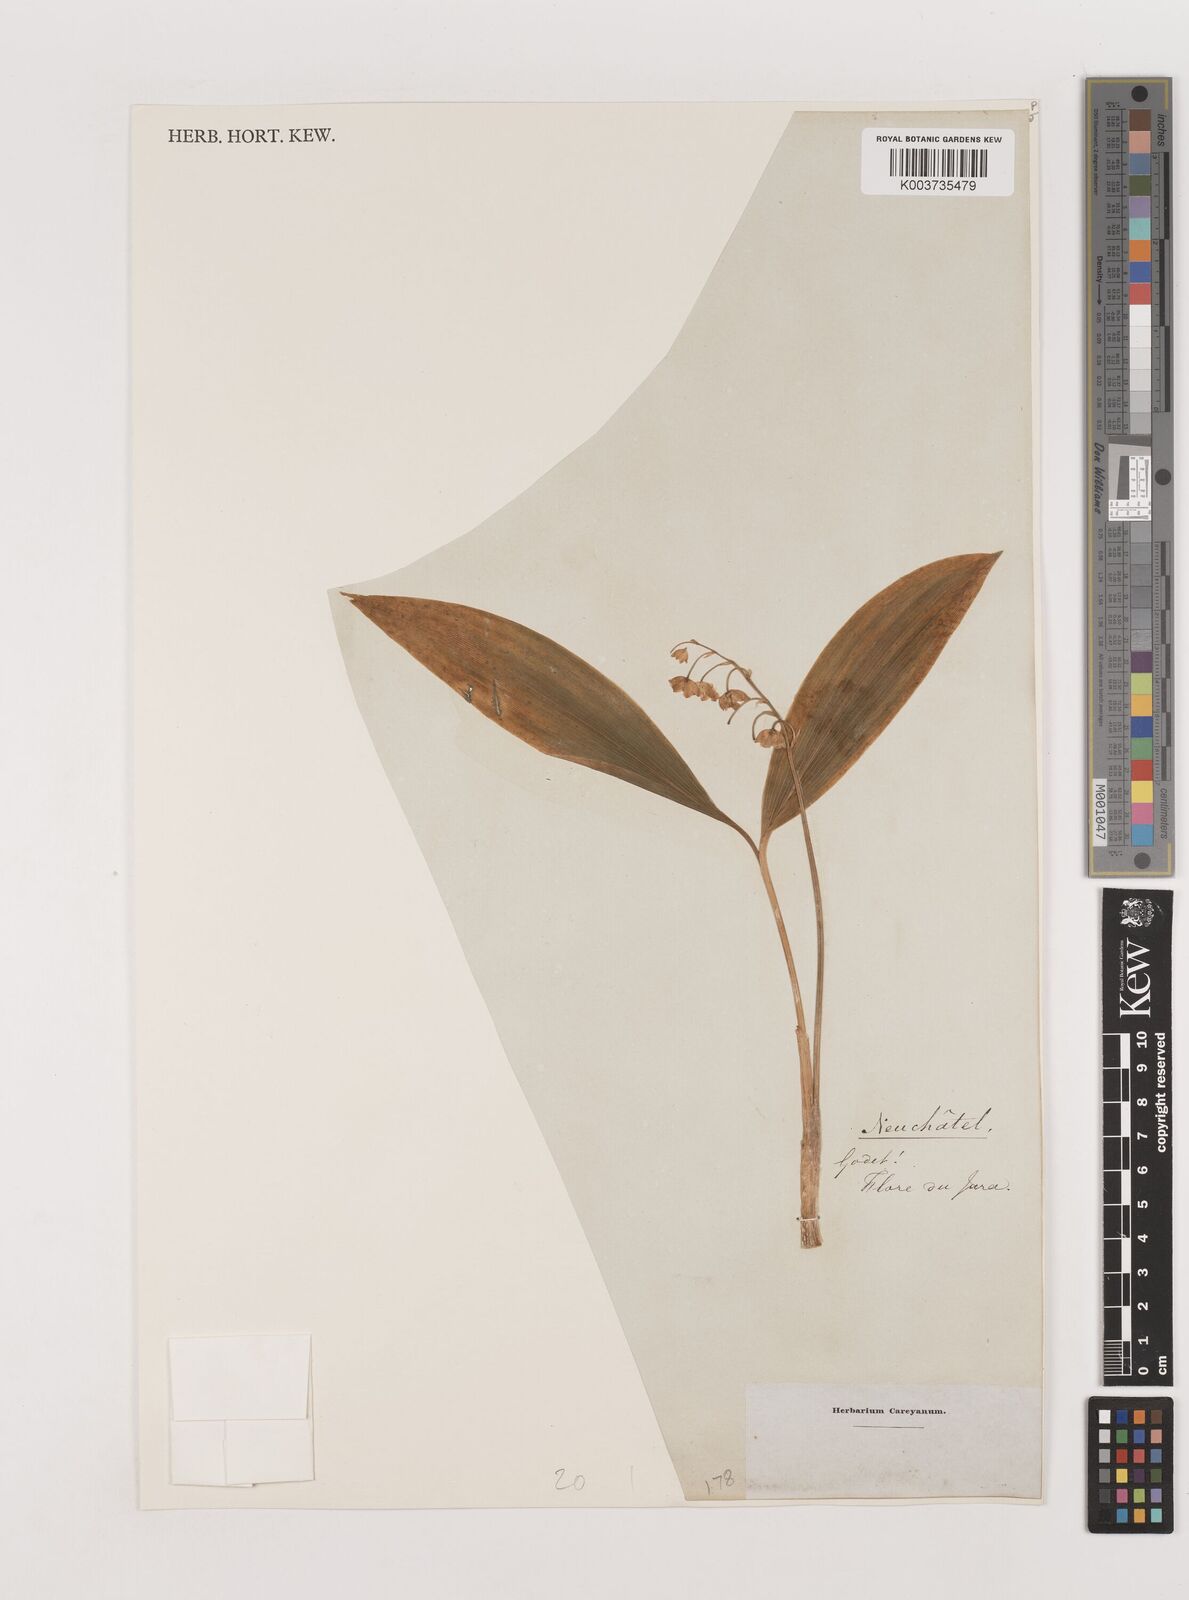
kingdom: Plantae
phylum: Tracheophyta
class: Liliopsida
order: Asparagales
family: Asparagaceae
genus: Convallaria
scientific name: Convallaria majalis
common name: Lily-of-the-valley
